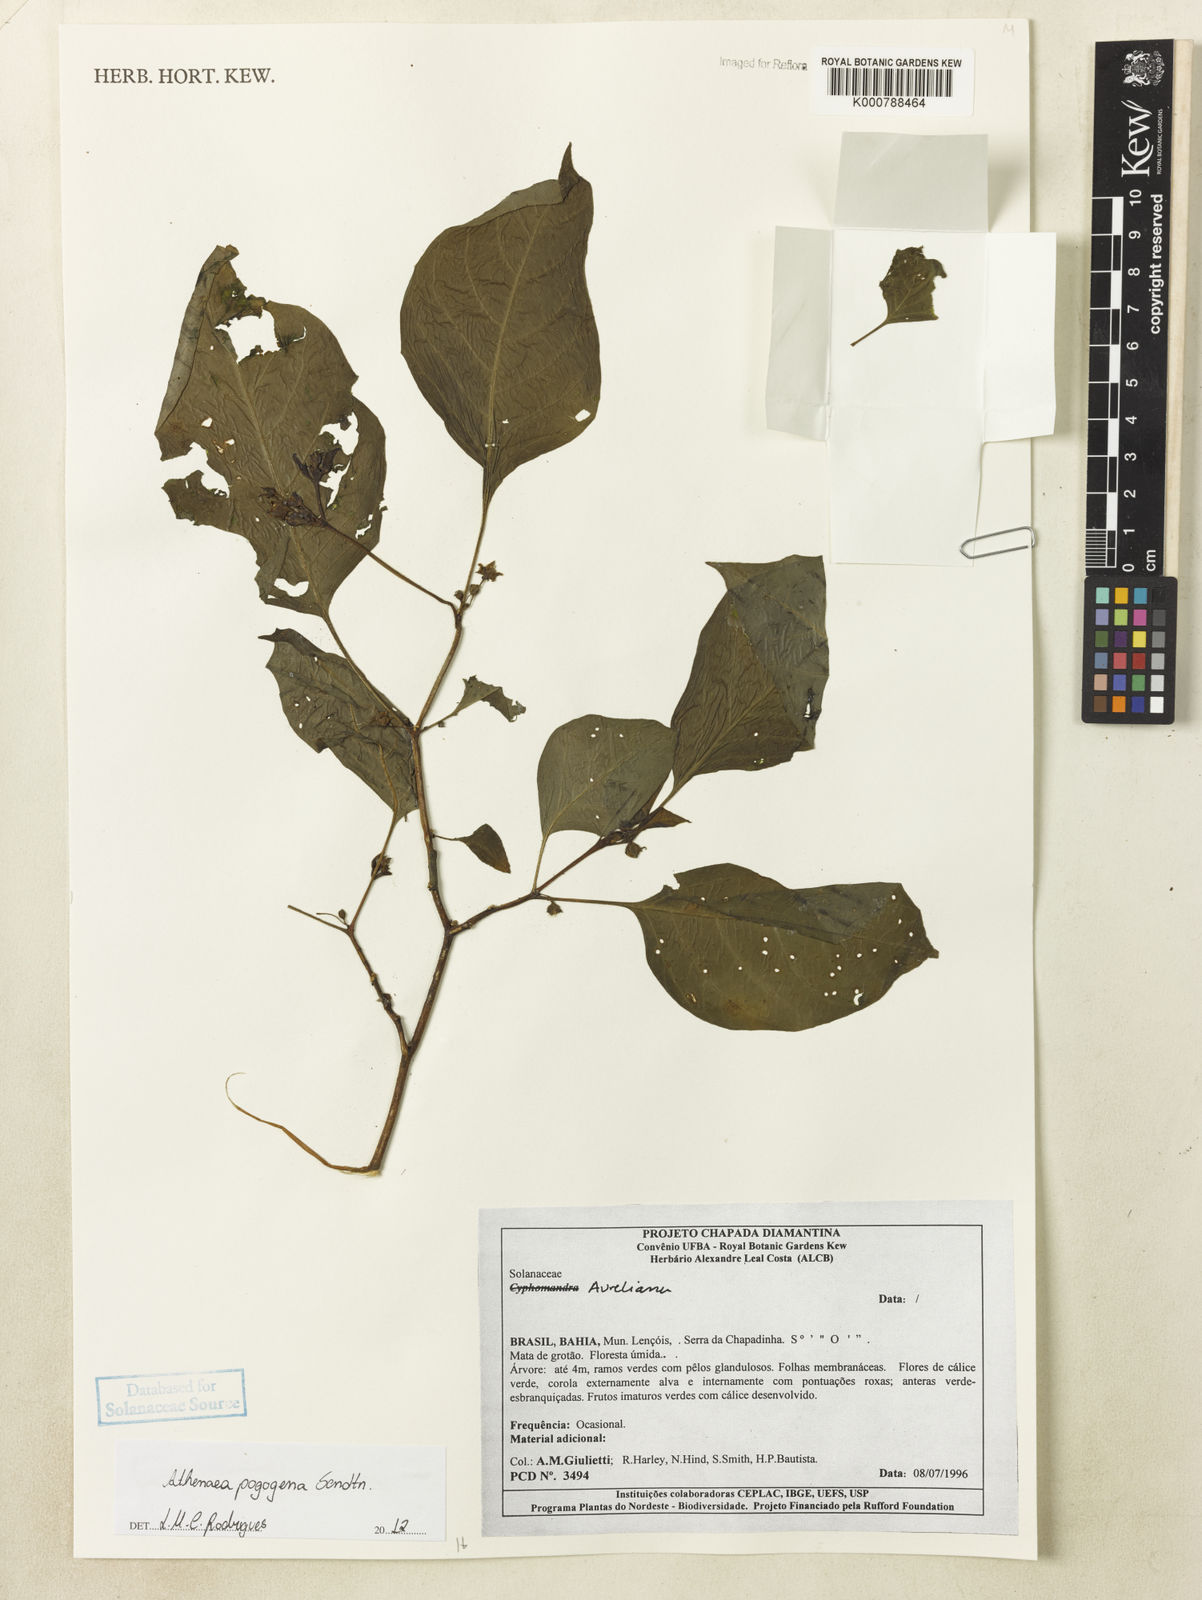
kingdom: Plantae
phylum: Tracheophyta
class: Magnoliopsida
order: Solanales
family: Solanaceae
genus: Athenaea
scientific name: Athenaea pogogena
